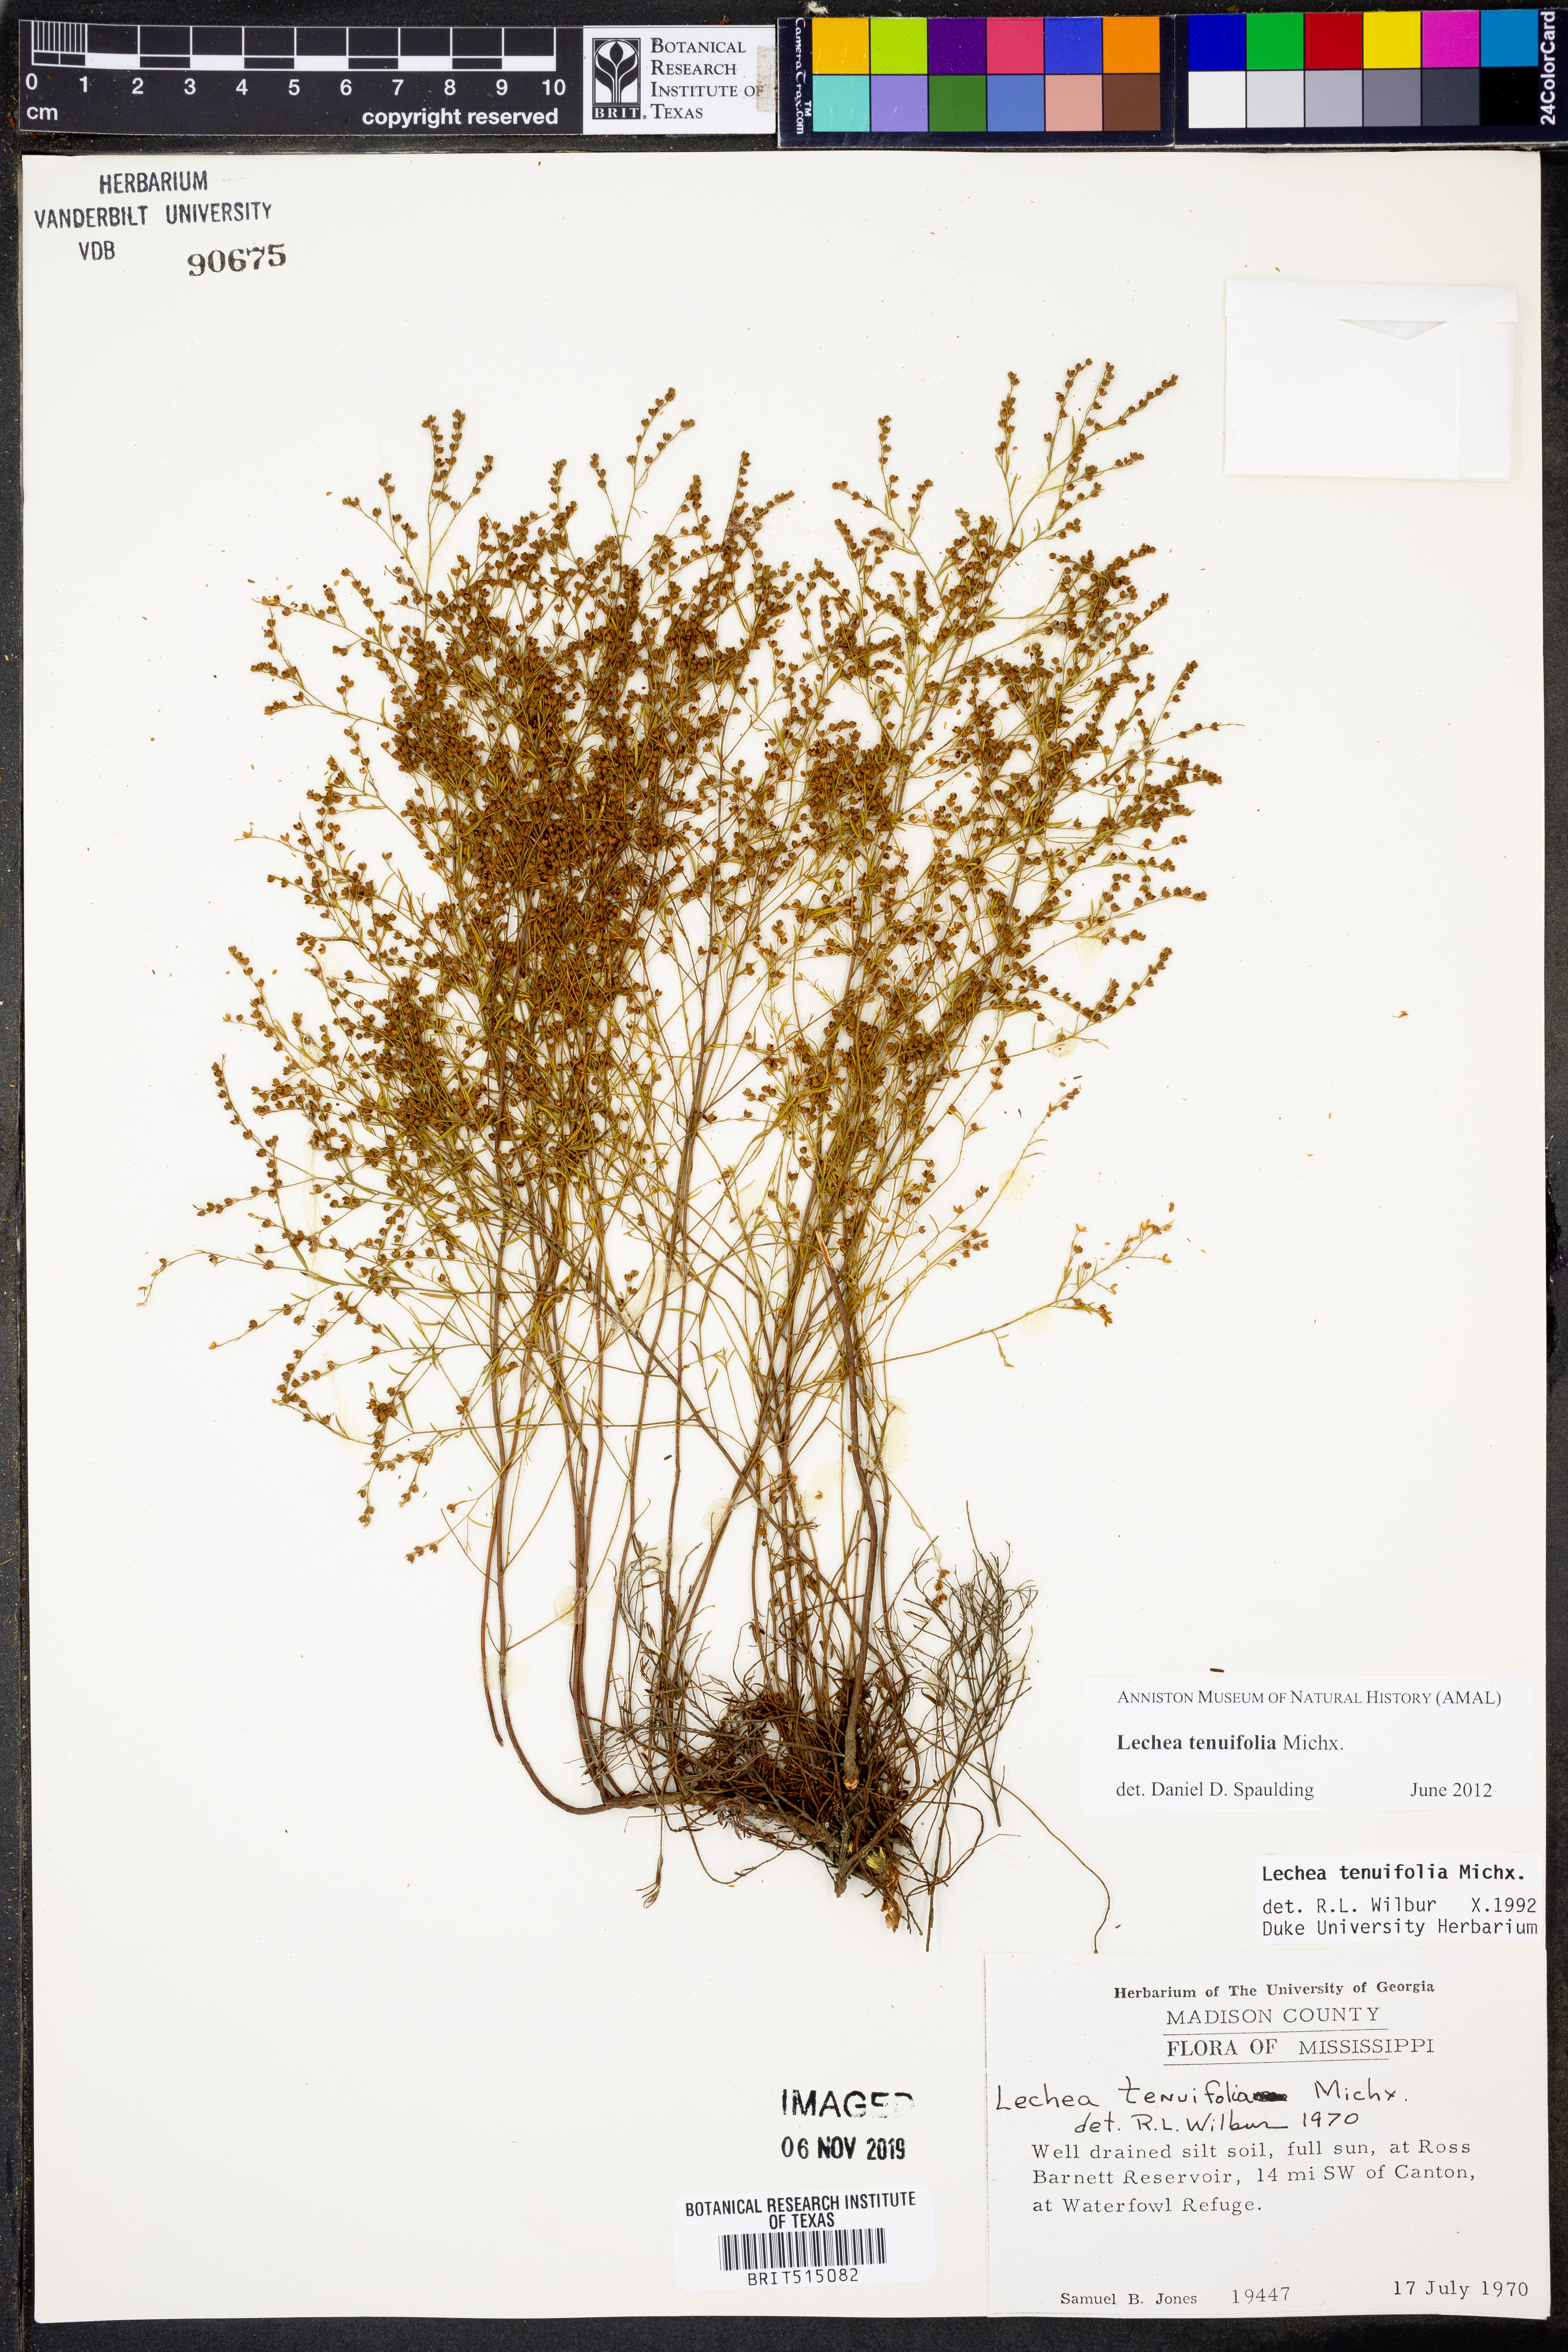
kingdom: Plantae
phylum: Tracheophyta
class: Magnoliopsida
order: Malvales
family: Cistaceae
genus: Lechea
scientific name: Lechea tenuifolia
